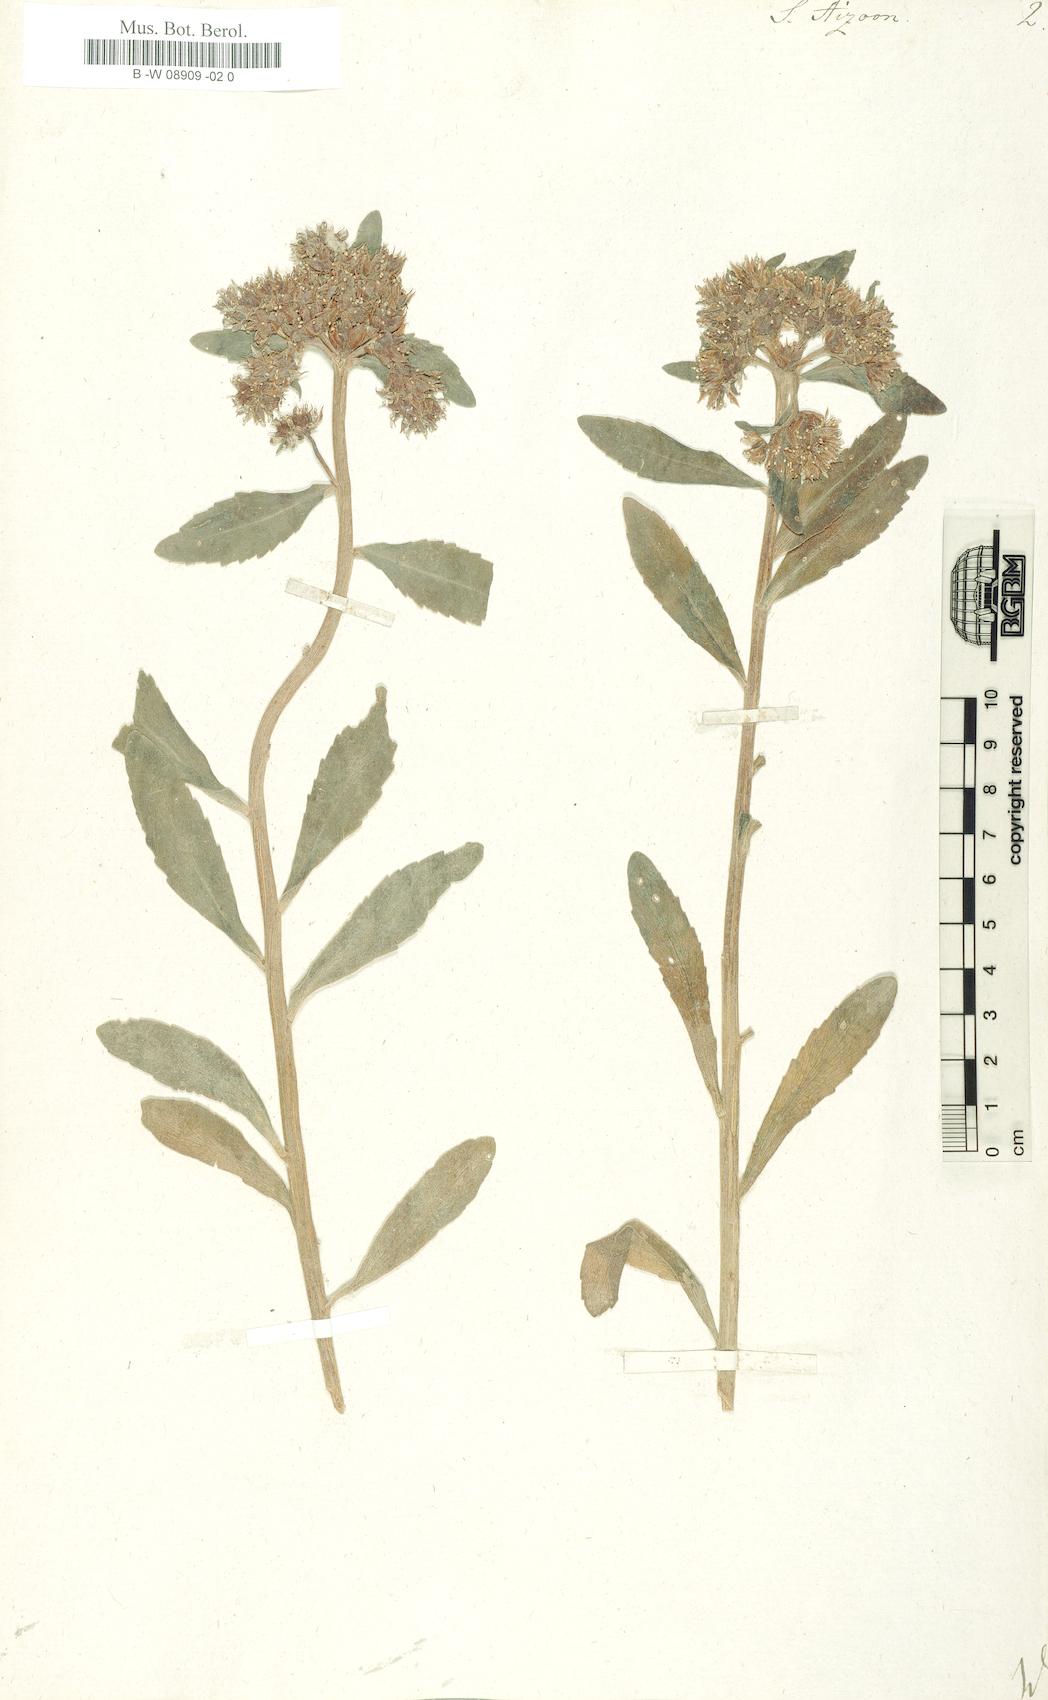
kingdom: Plantae
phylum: Tracheophyta
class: Magnoliopsida
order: Saxifragales
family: Crassulaceae
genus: Sedum
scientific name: Sedum aizoon
